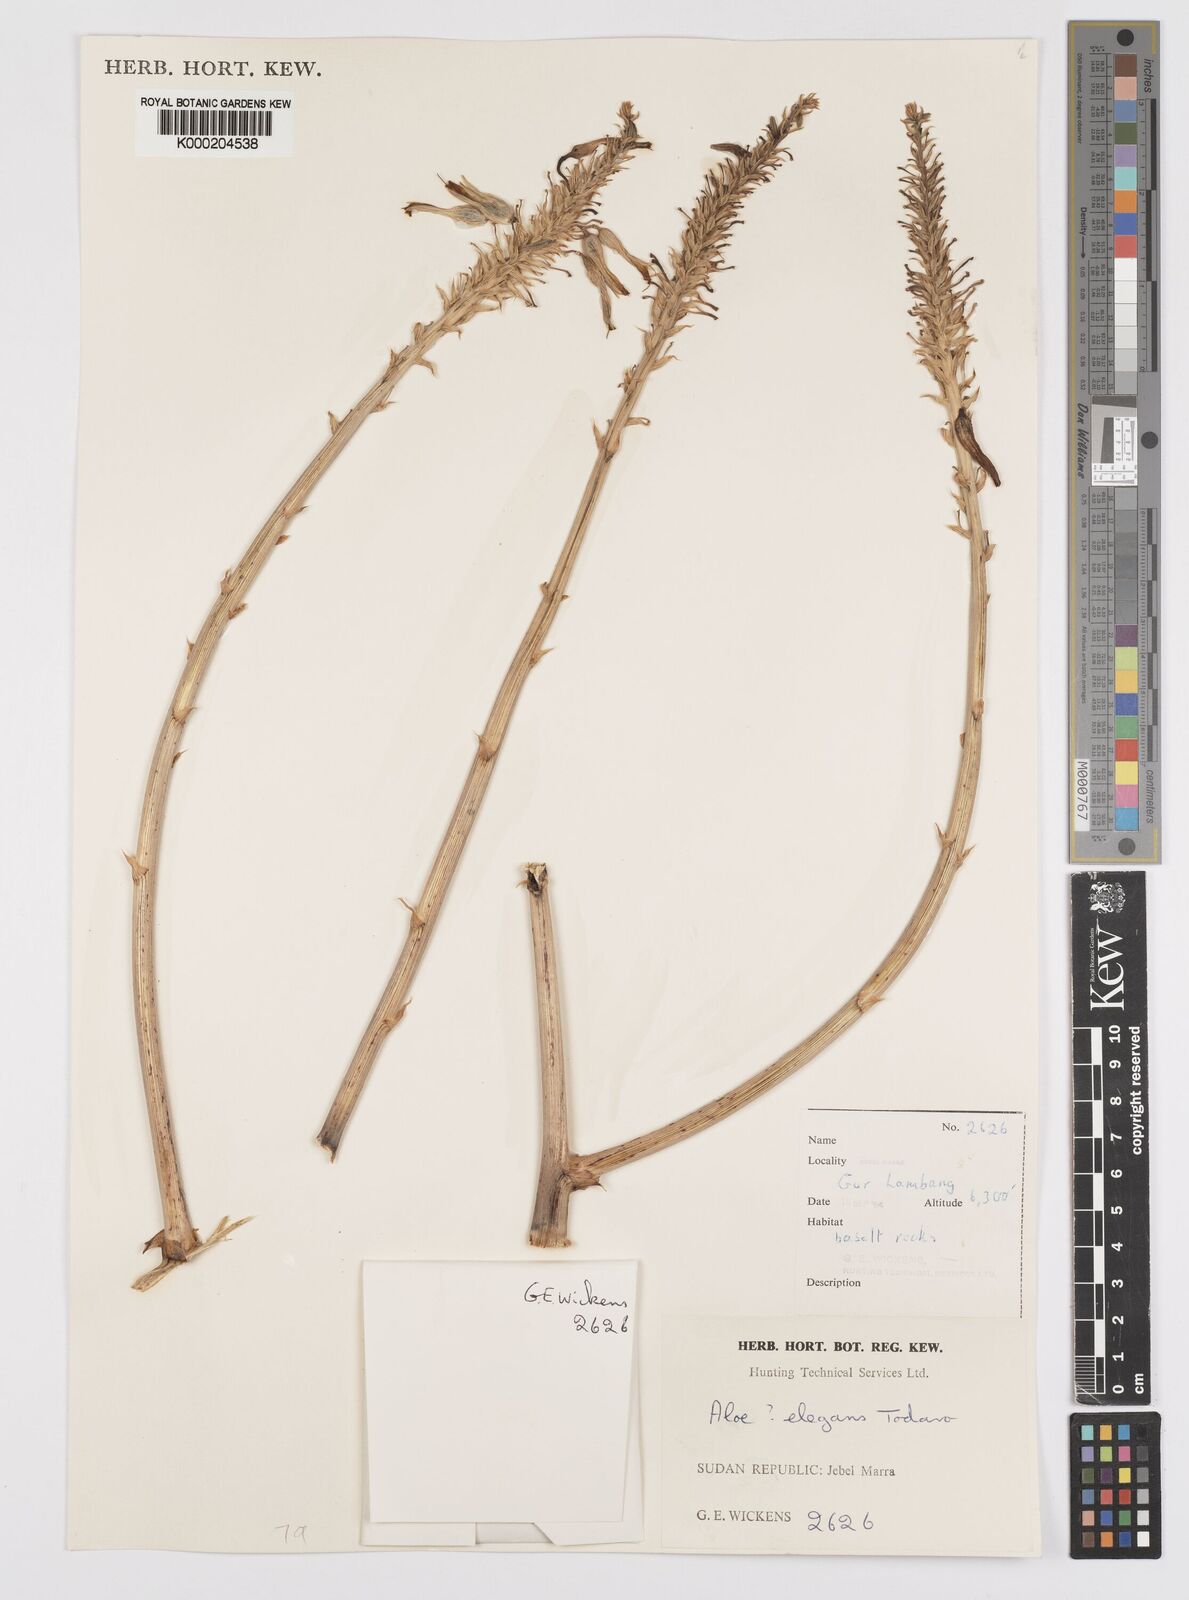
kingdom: Plantae
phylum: Tracheophyta
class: Liliopsida
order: Asparagales
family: Asphodelaceae
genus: Aloe
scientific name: Aloe elegans
